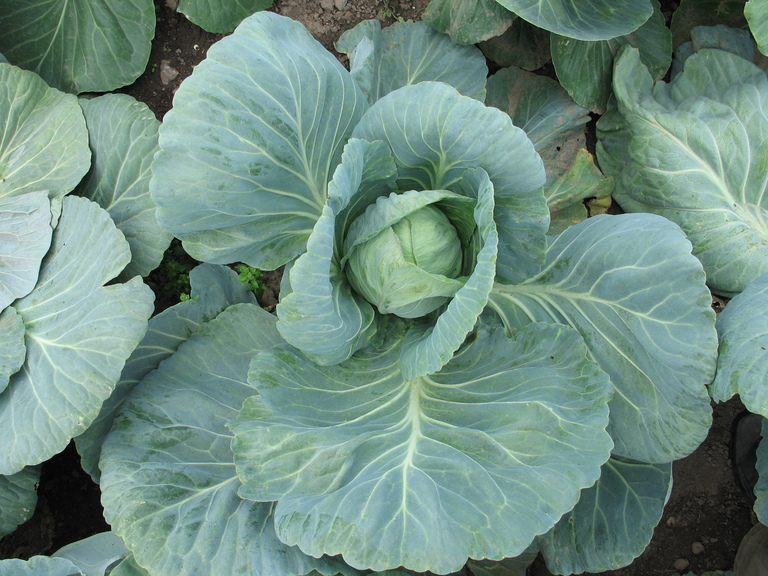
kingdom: Plantae
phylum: Tracheophyta
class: Magnoliopsida
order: Brassicales
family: Brassicaceae
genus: Brassica
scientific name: Brassica oleracea
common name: Cabbage
